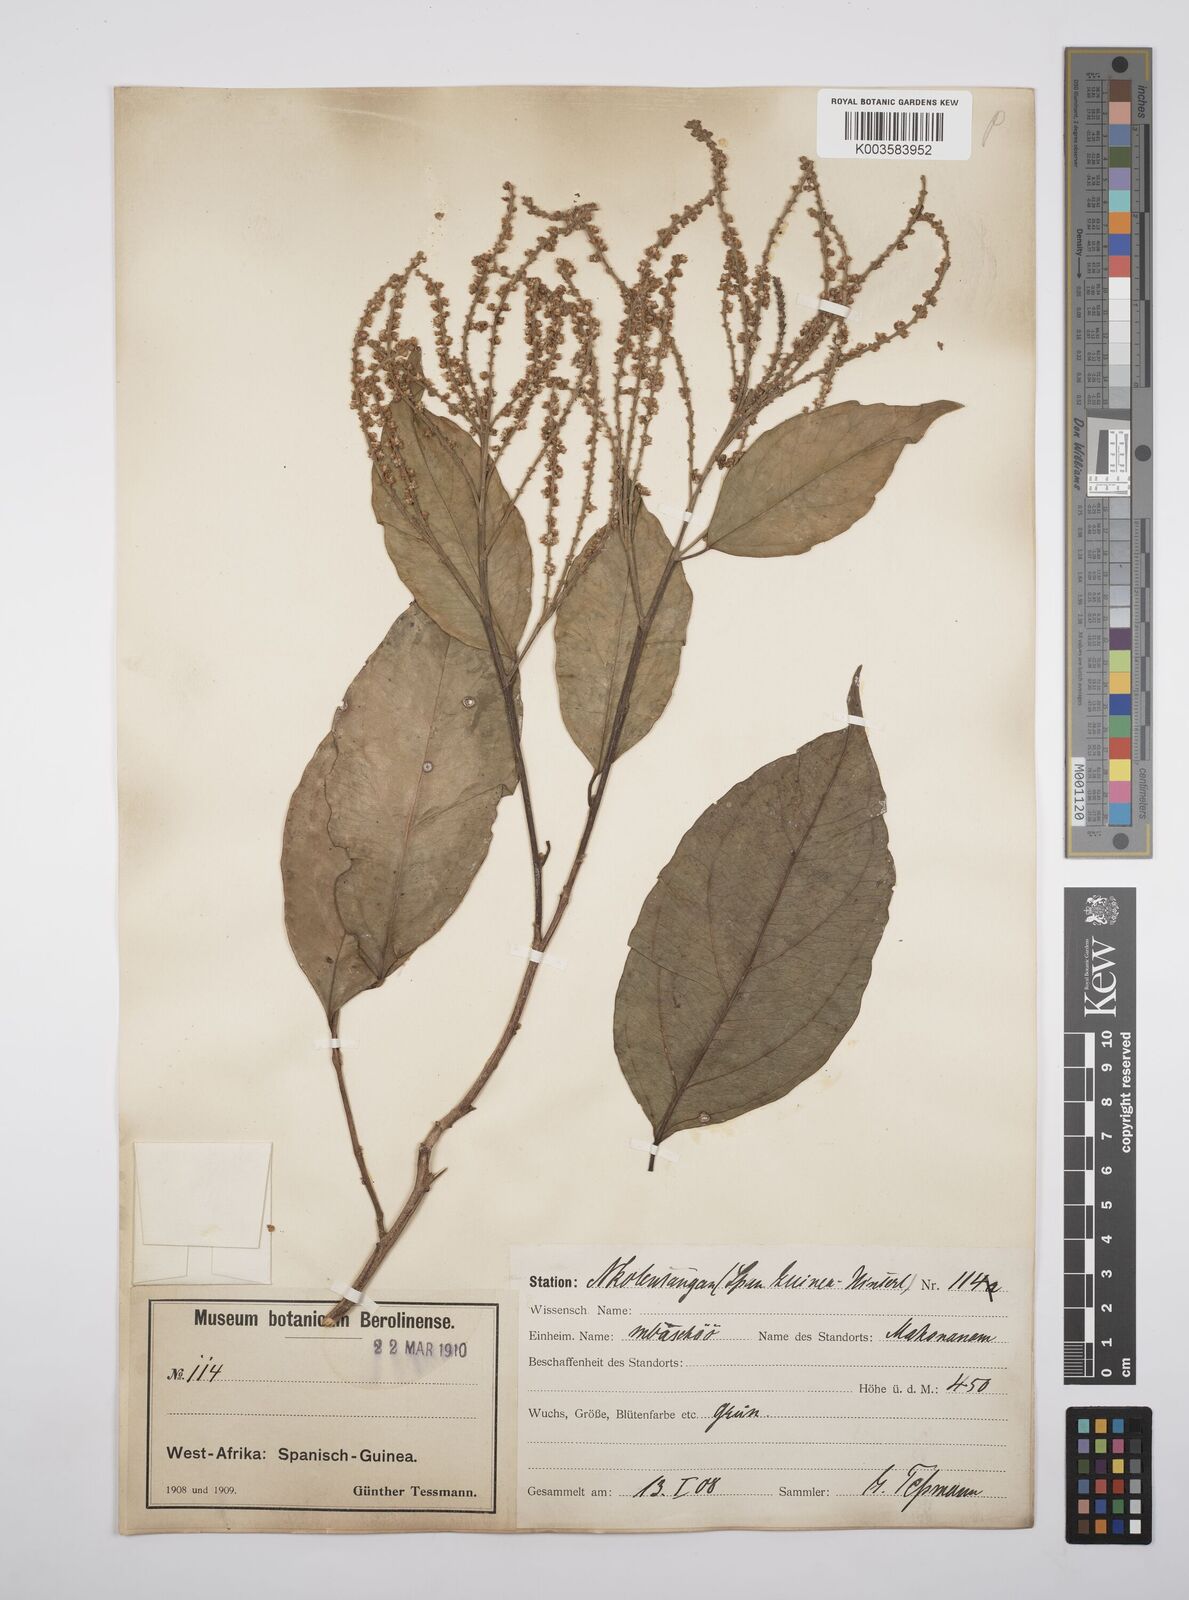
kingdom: Plantae
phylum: Tracheophyta
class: Magnoliopsida
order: Malpighiales
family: Salicaceae
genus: Ophiobotrys
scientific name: Ophiobotrys zenkeri
